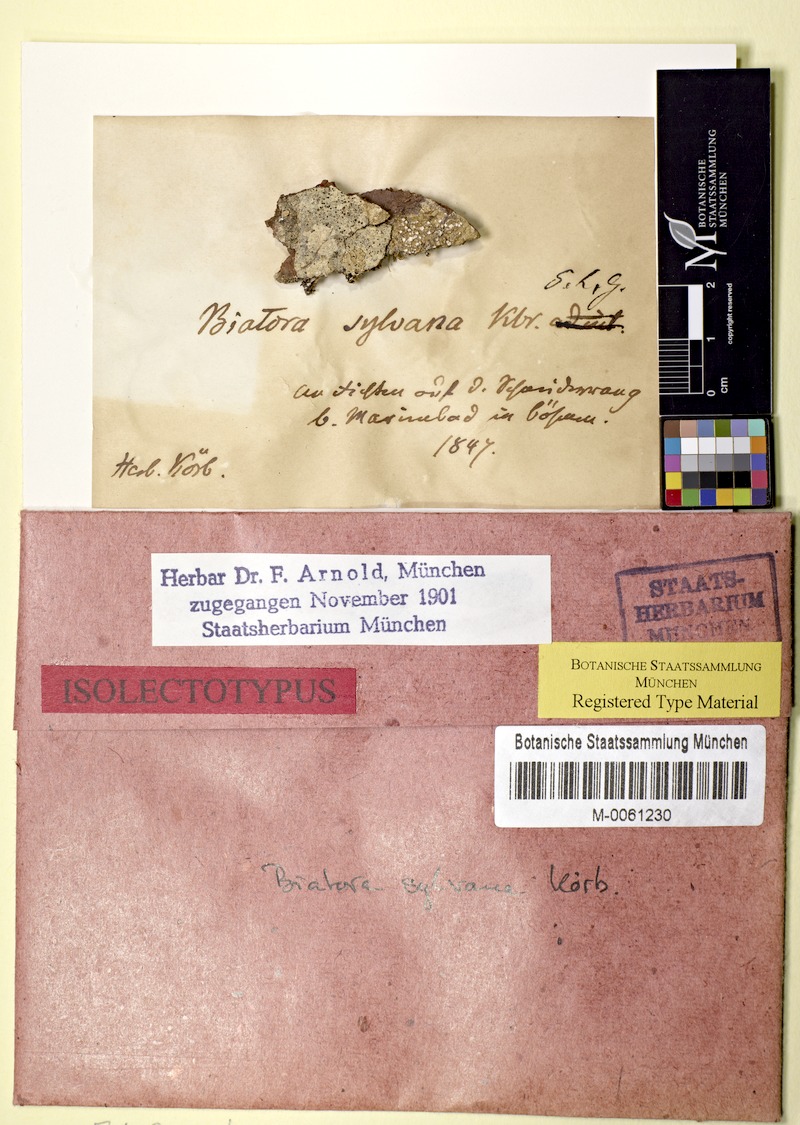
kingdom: Fungi
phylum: Ascomycota
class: Lecanoromycetes
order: Lecanorales
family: Ramalinaceae
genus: Biatora
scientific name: Biatora globulosa
